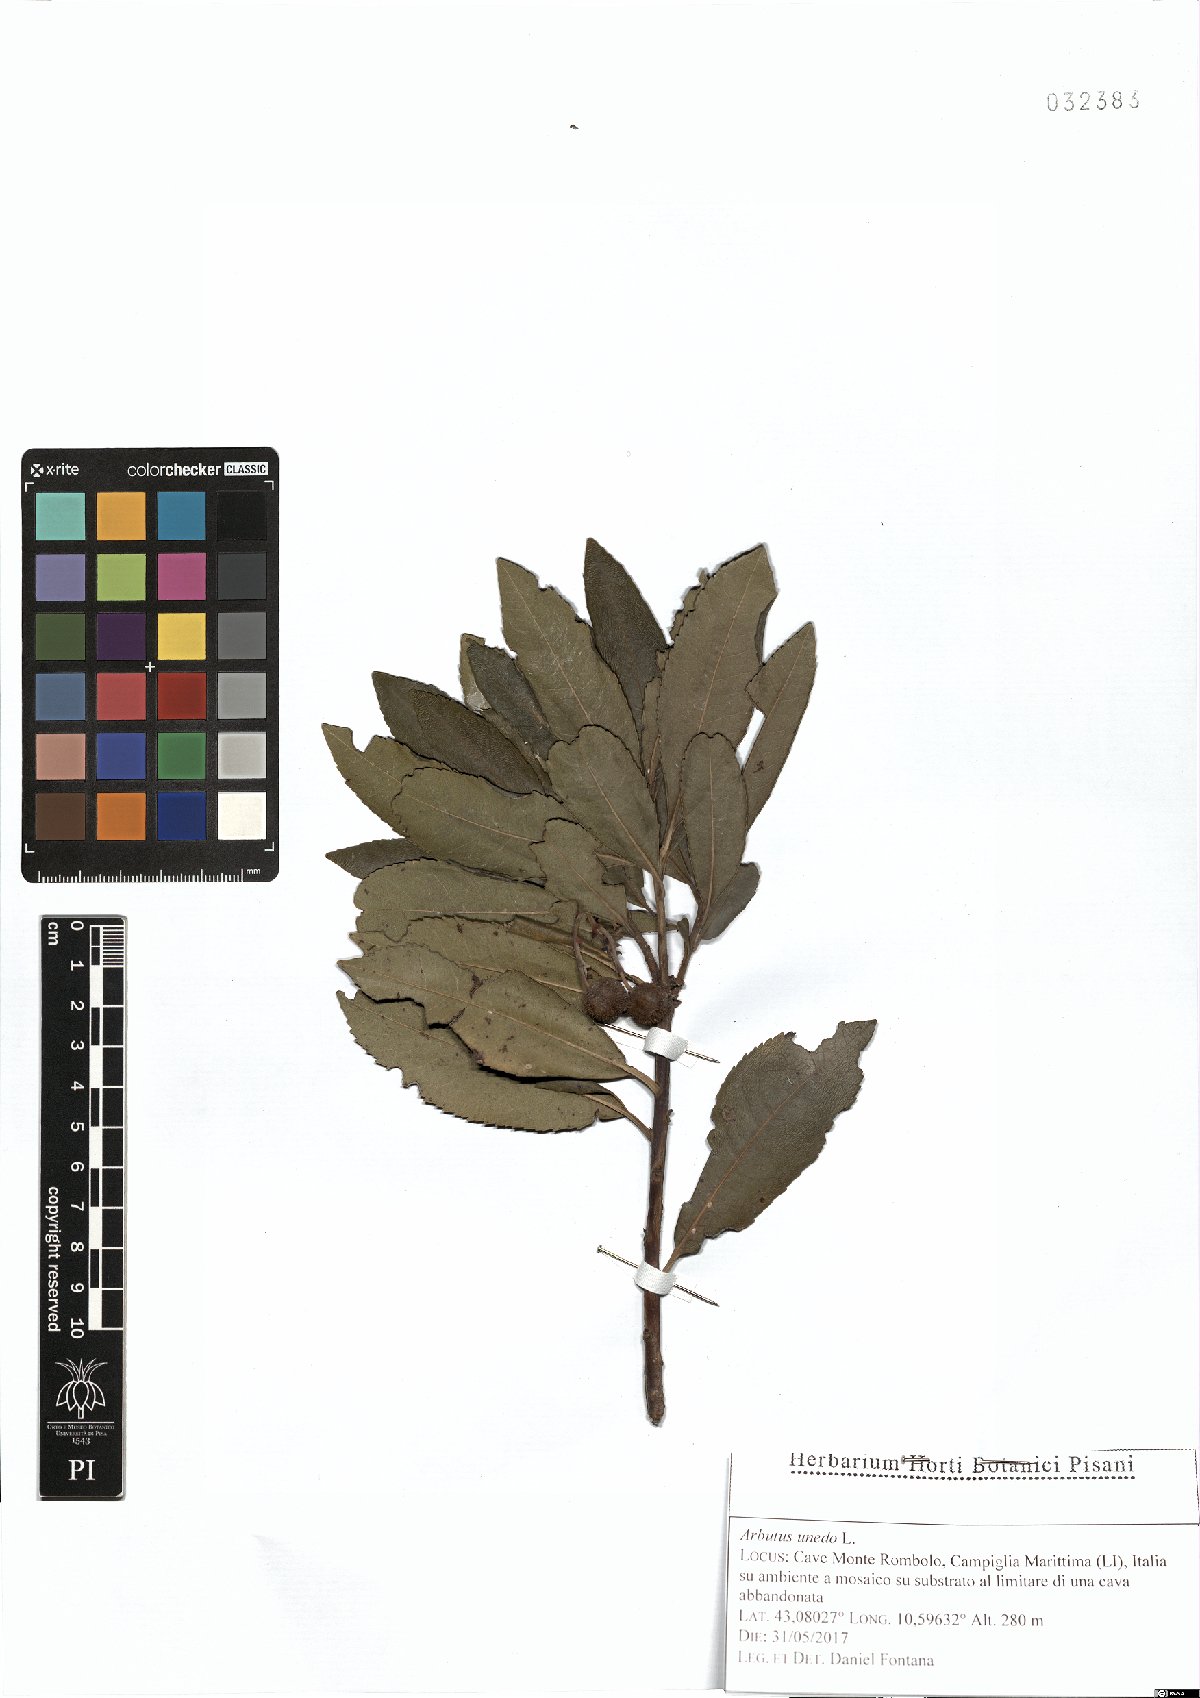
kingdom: Plantae
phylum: Tracheophyta
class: Magnoliopsida
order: Ericales
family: Ericaceae
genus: Arbutus
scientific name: Arbutus unedo
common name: Strawberry-tree
